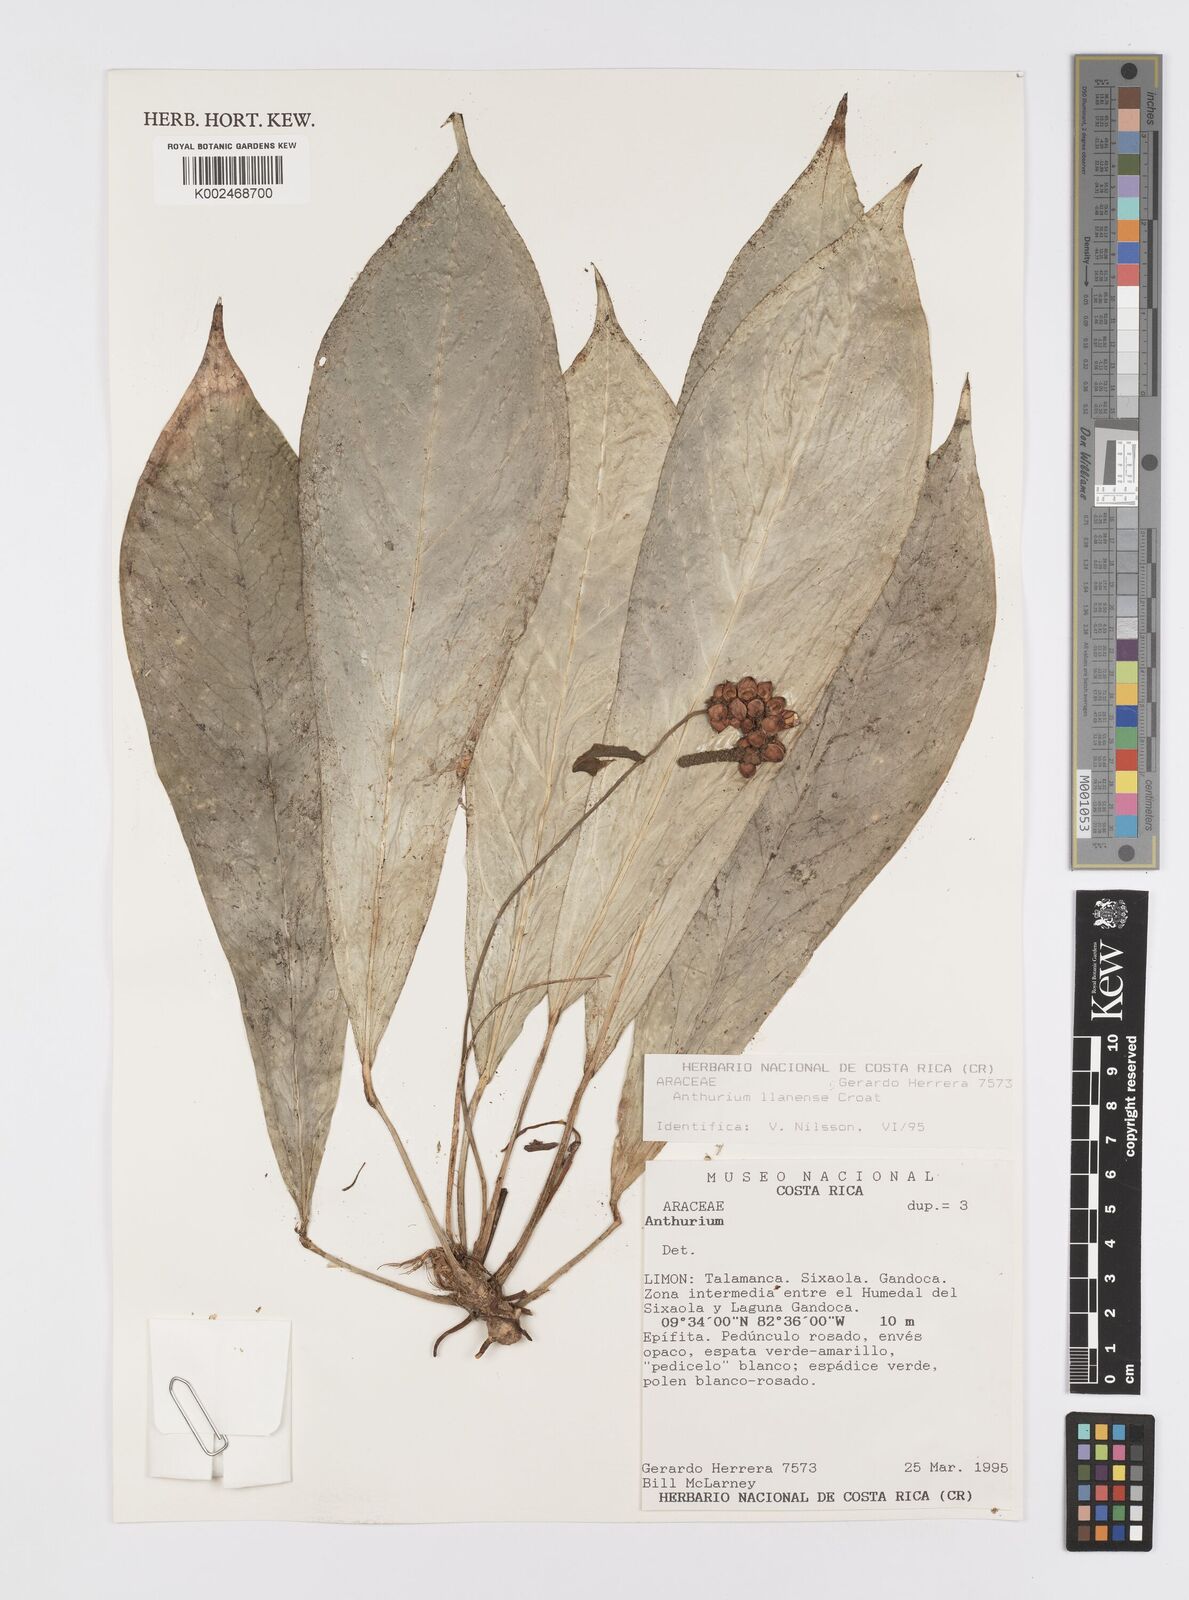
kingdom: Plantae
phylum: Tracheophyta
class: Liliopsida
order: Alismatales
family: Araceae
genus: Anthurium
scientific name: Anthurium llanense
